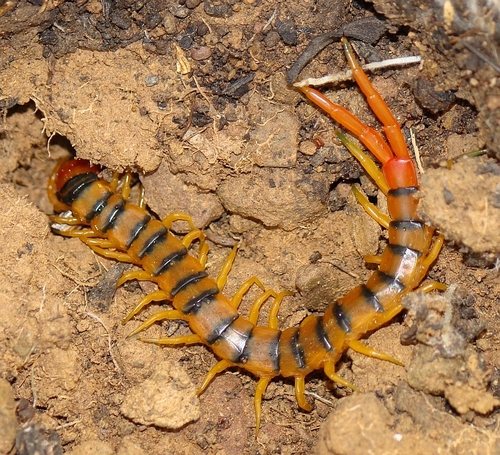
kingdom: Animalia
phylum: Arthropoda
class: Chilopoda
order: Scolopendromorpha
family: Scolopendridae
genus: Scolopendra
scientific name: Scolopendra cingulata
